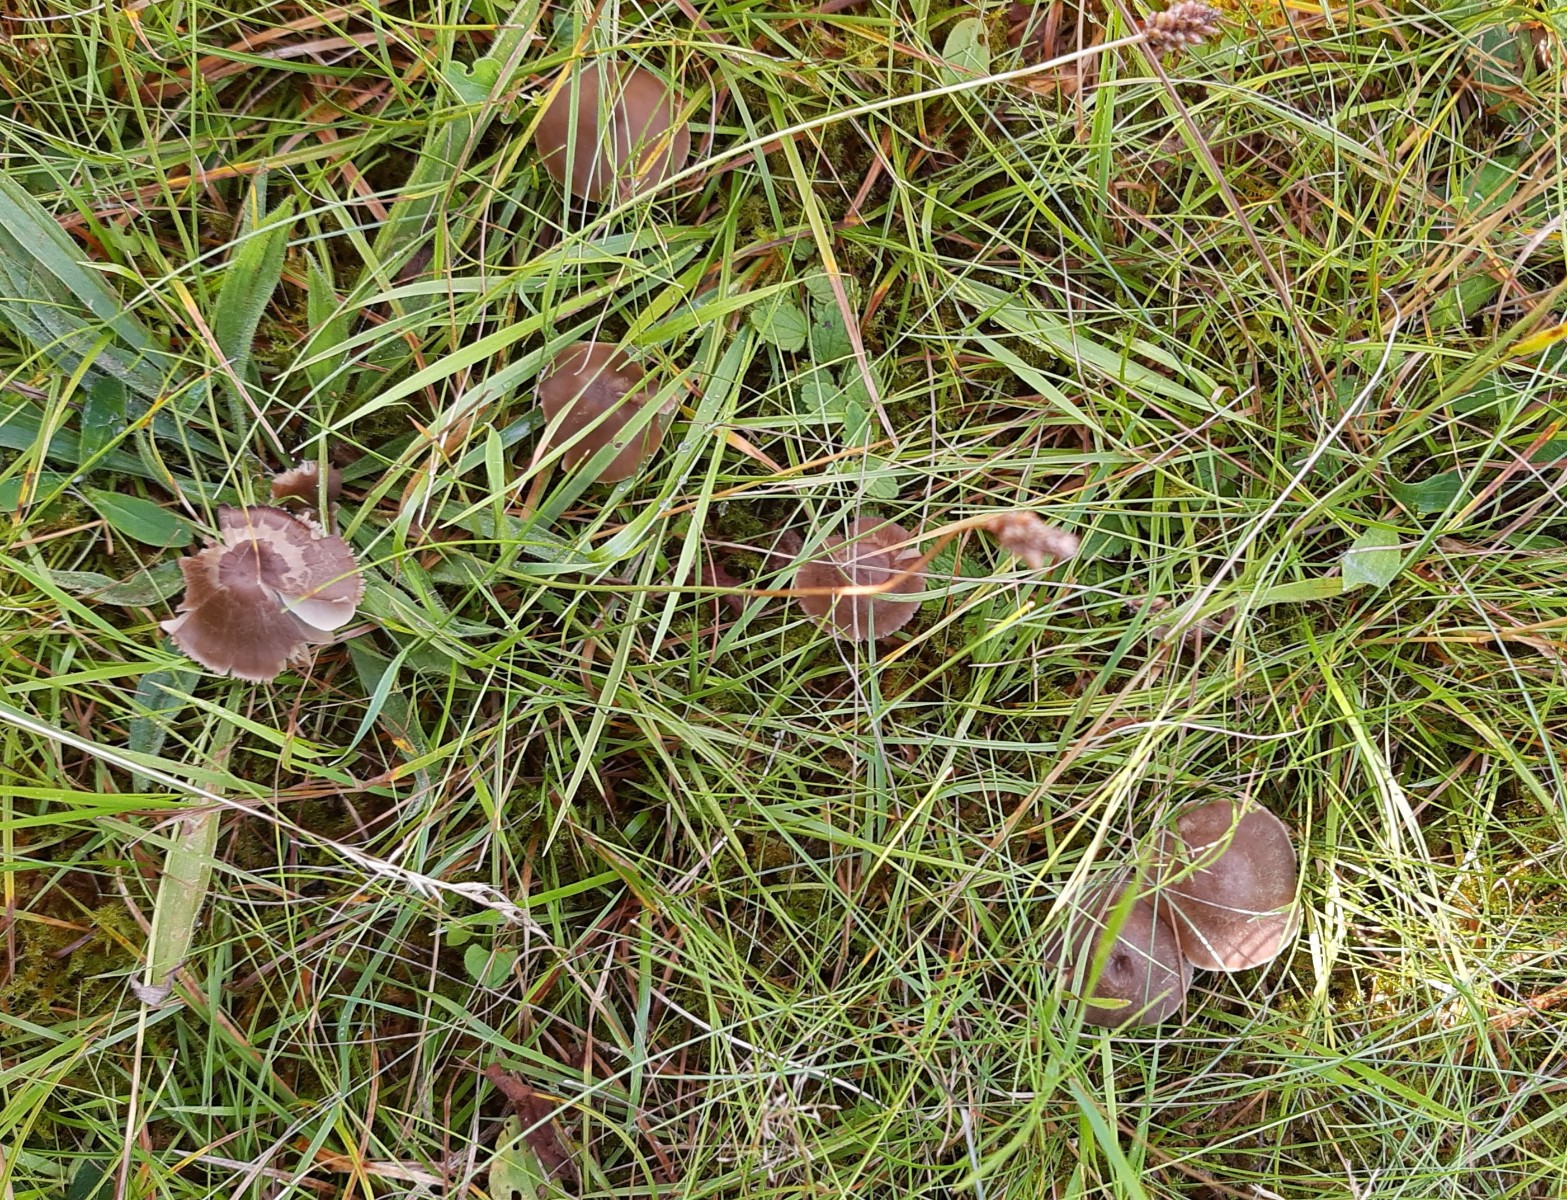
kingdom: Fungi
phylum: Basidiomycota
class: Agaricomycetes
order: Agaricales
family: Hygrophoraceae
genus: Neohygrocybe
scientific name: Neohygrocybe nitrata
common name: stinkende vokshat
